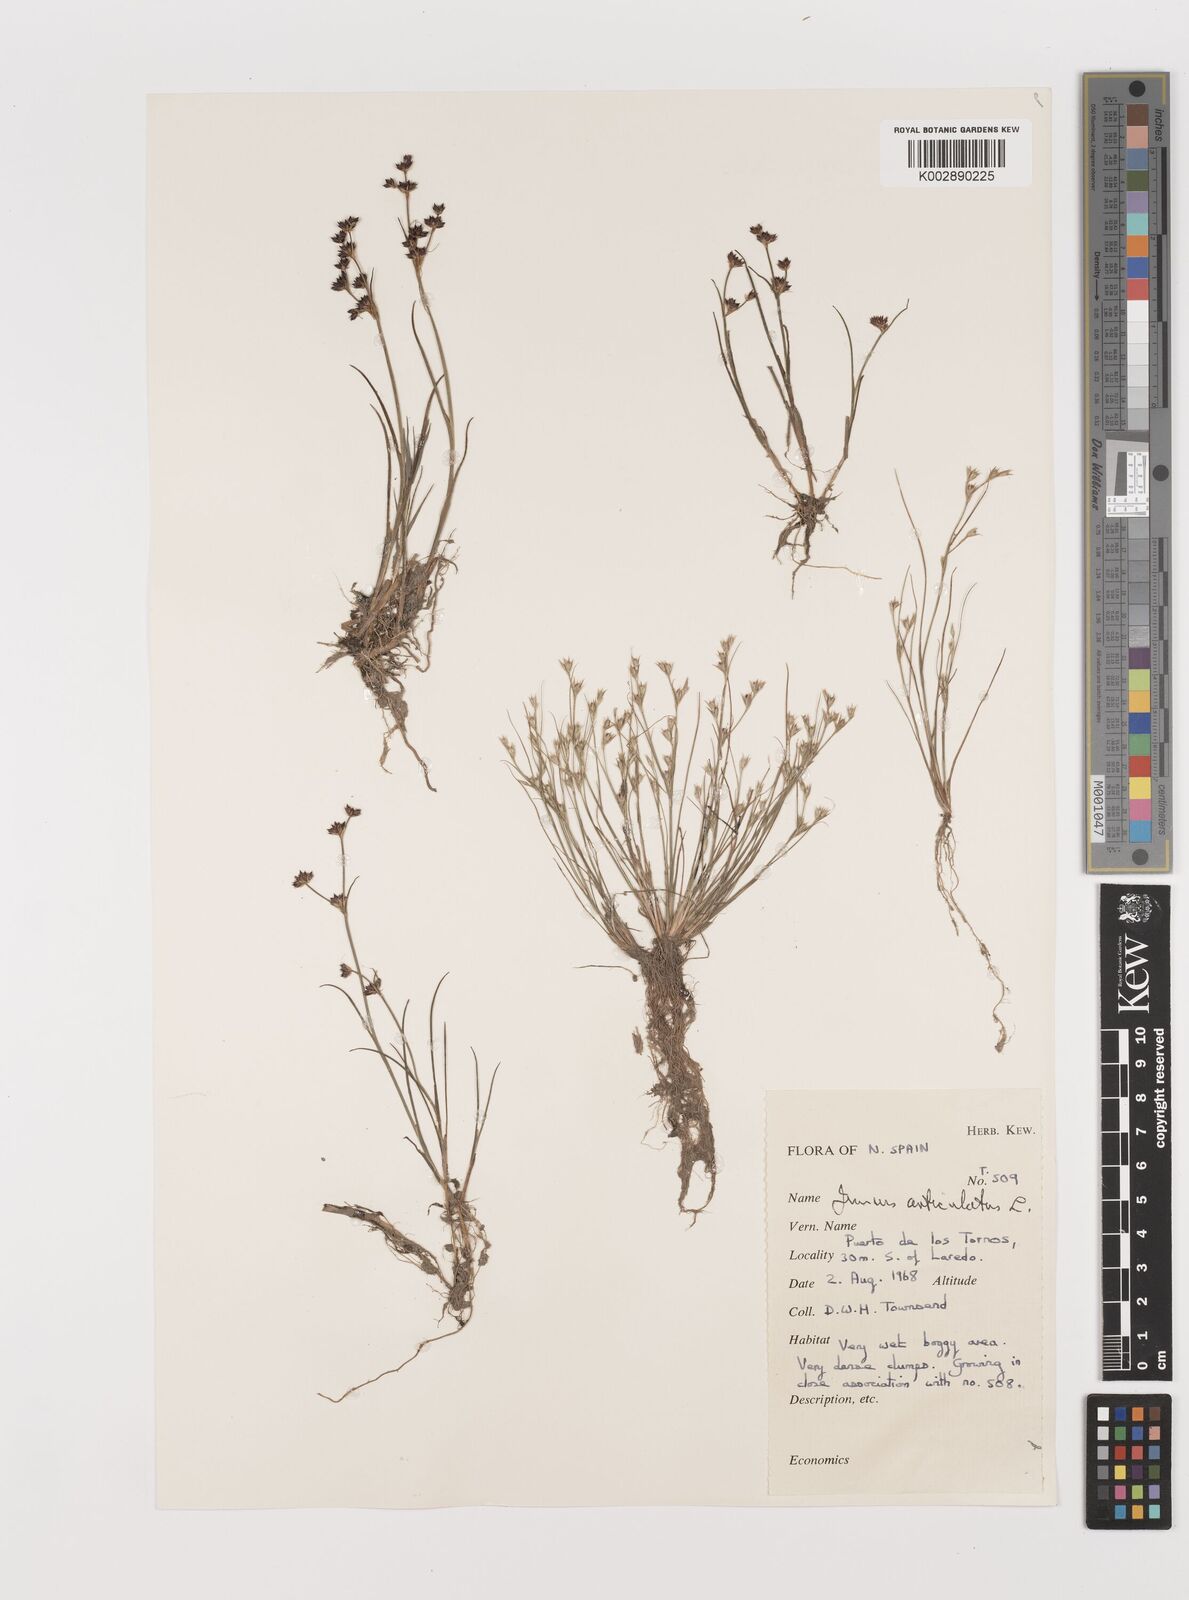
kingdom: Plantae
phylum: Tracheophyta
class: Liliopsida
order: Poales
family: Juncaceae
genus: Juncus
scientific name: Juncus articulatus
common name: Jointed rush
